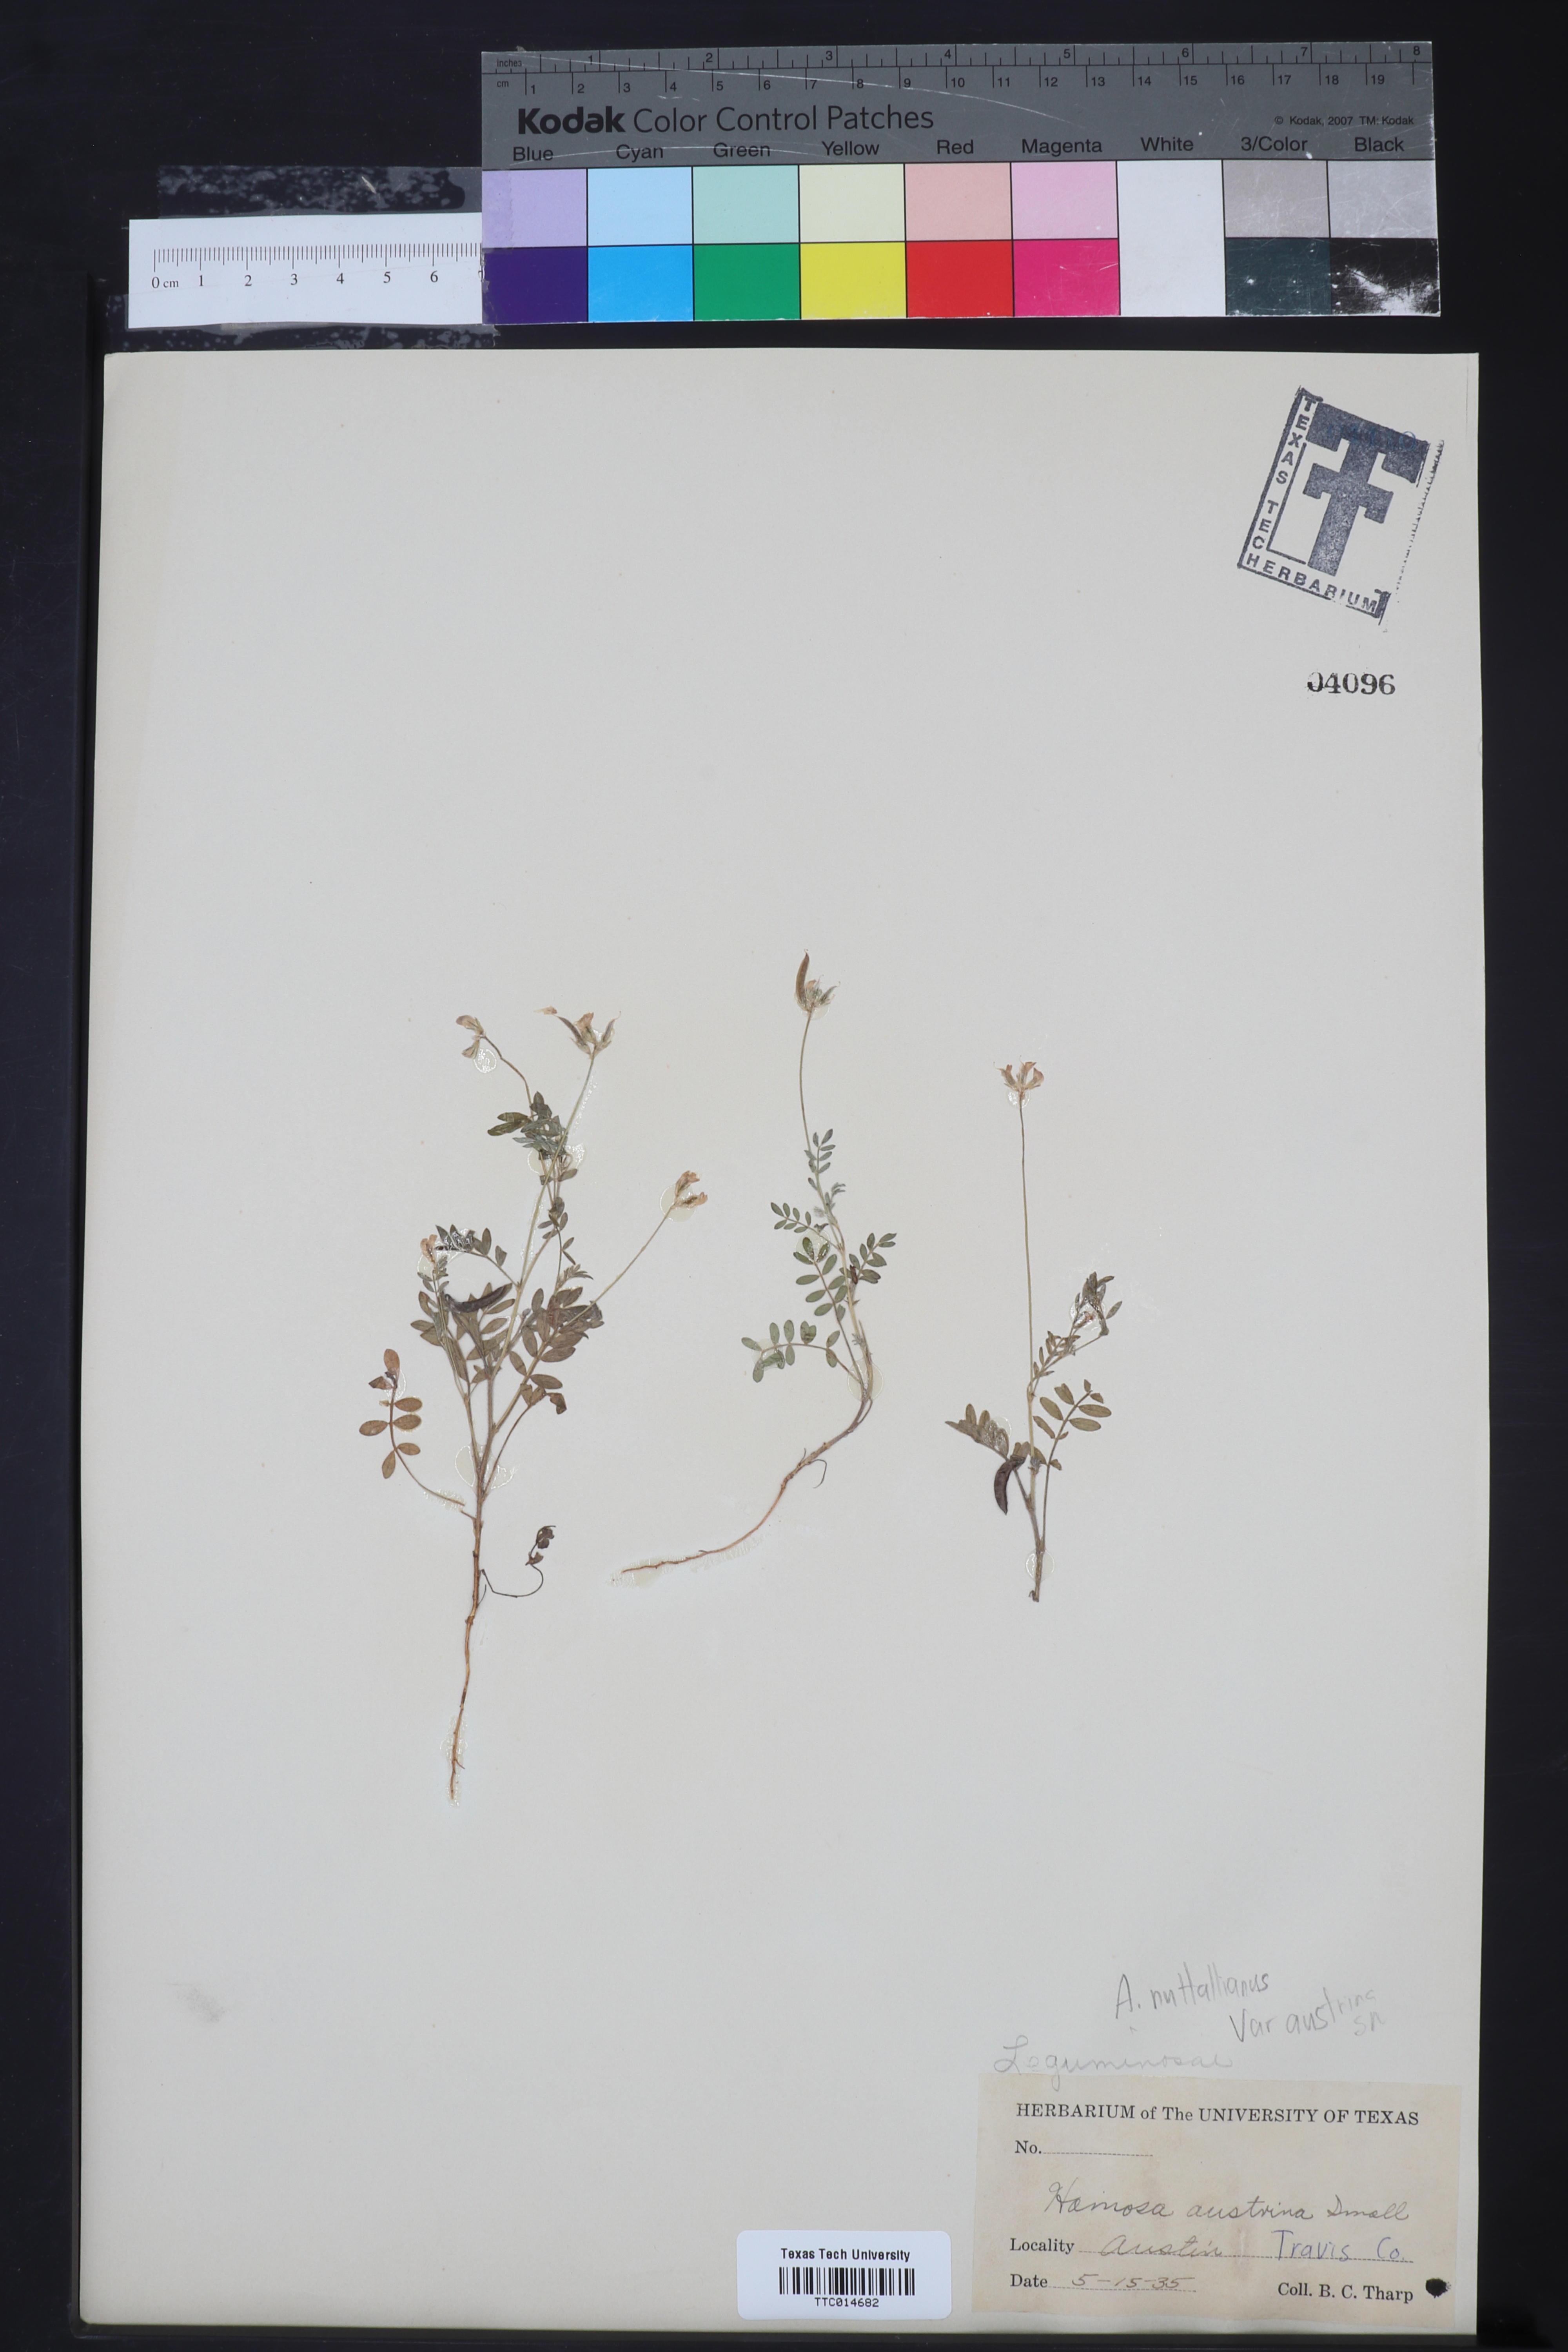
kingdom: Plantae
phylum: Tracheophyta
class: Magnoliopsida
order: Fabales
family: Fabaceae
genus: Astragalus
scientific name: Astragalus nuttallianus
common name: Smallflowered milkvetch
